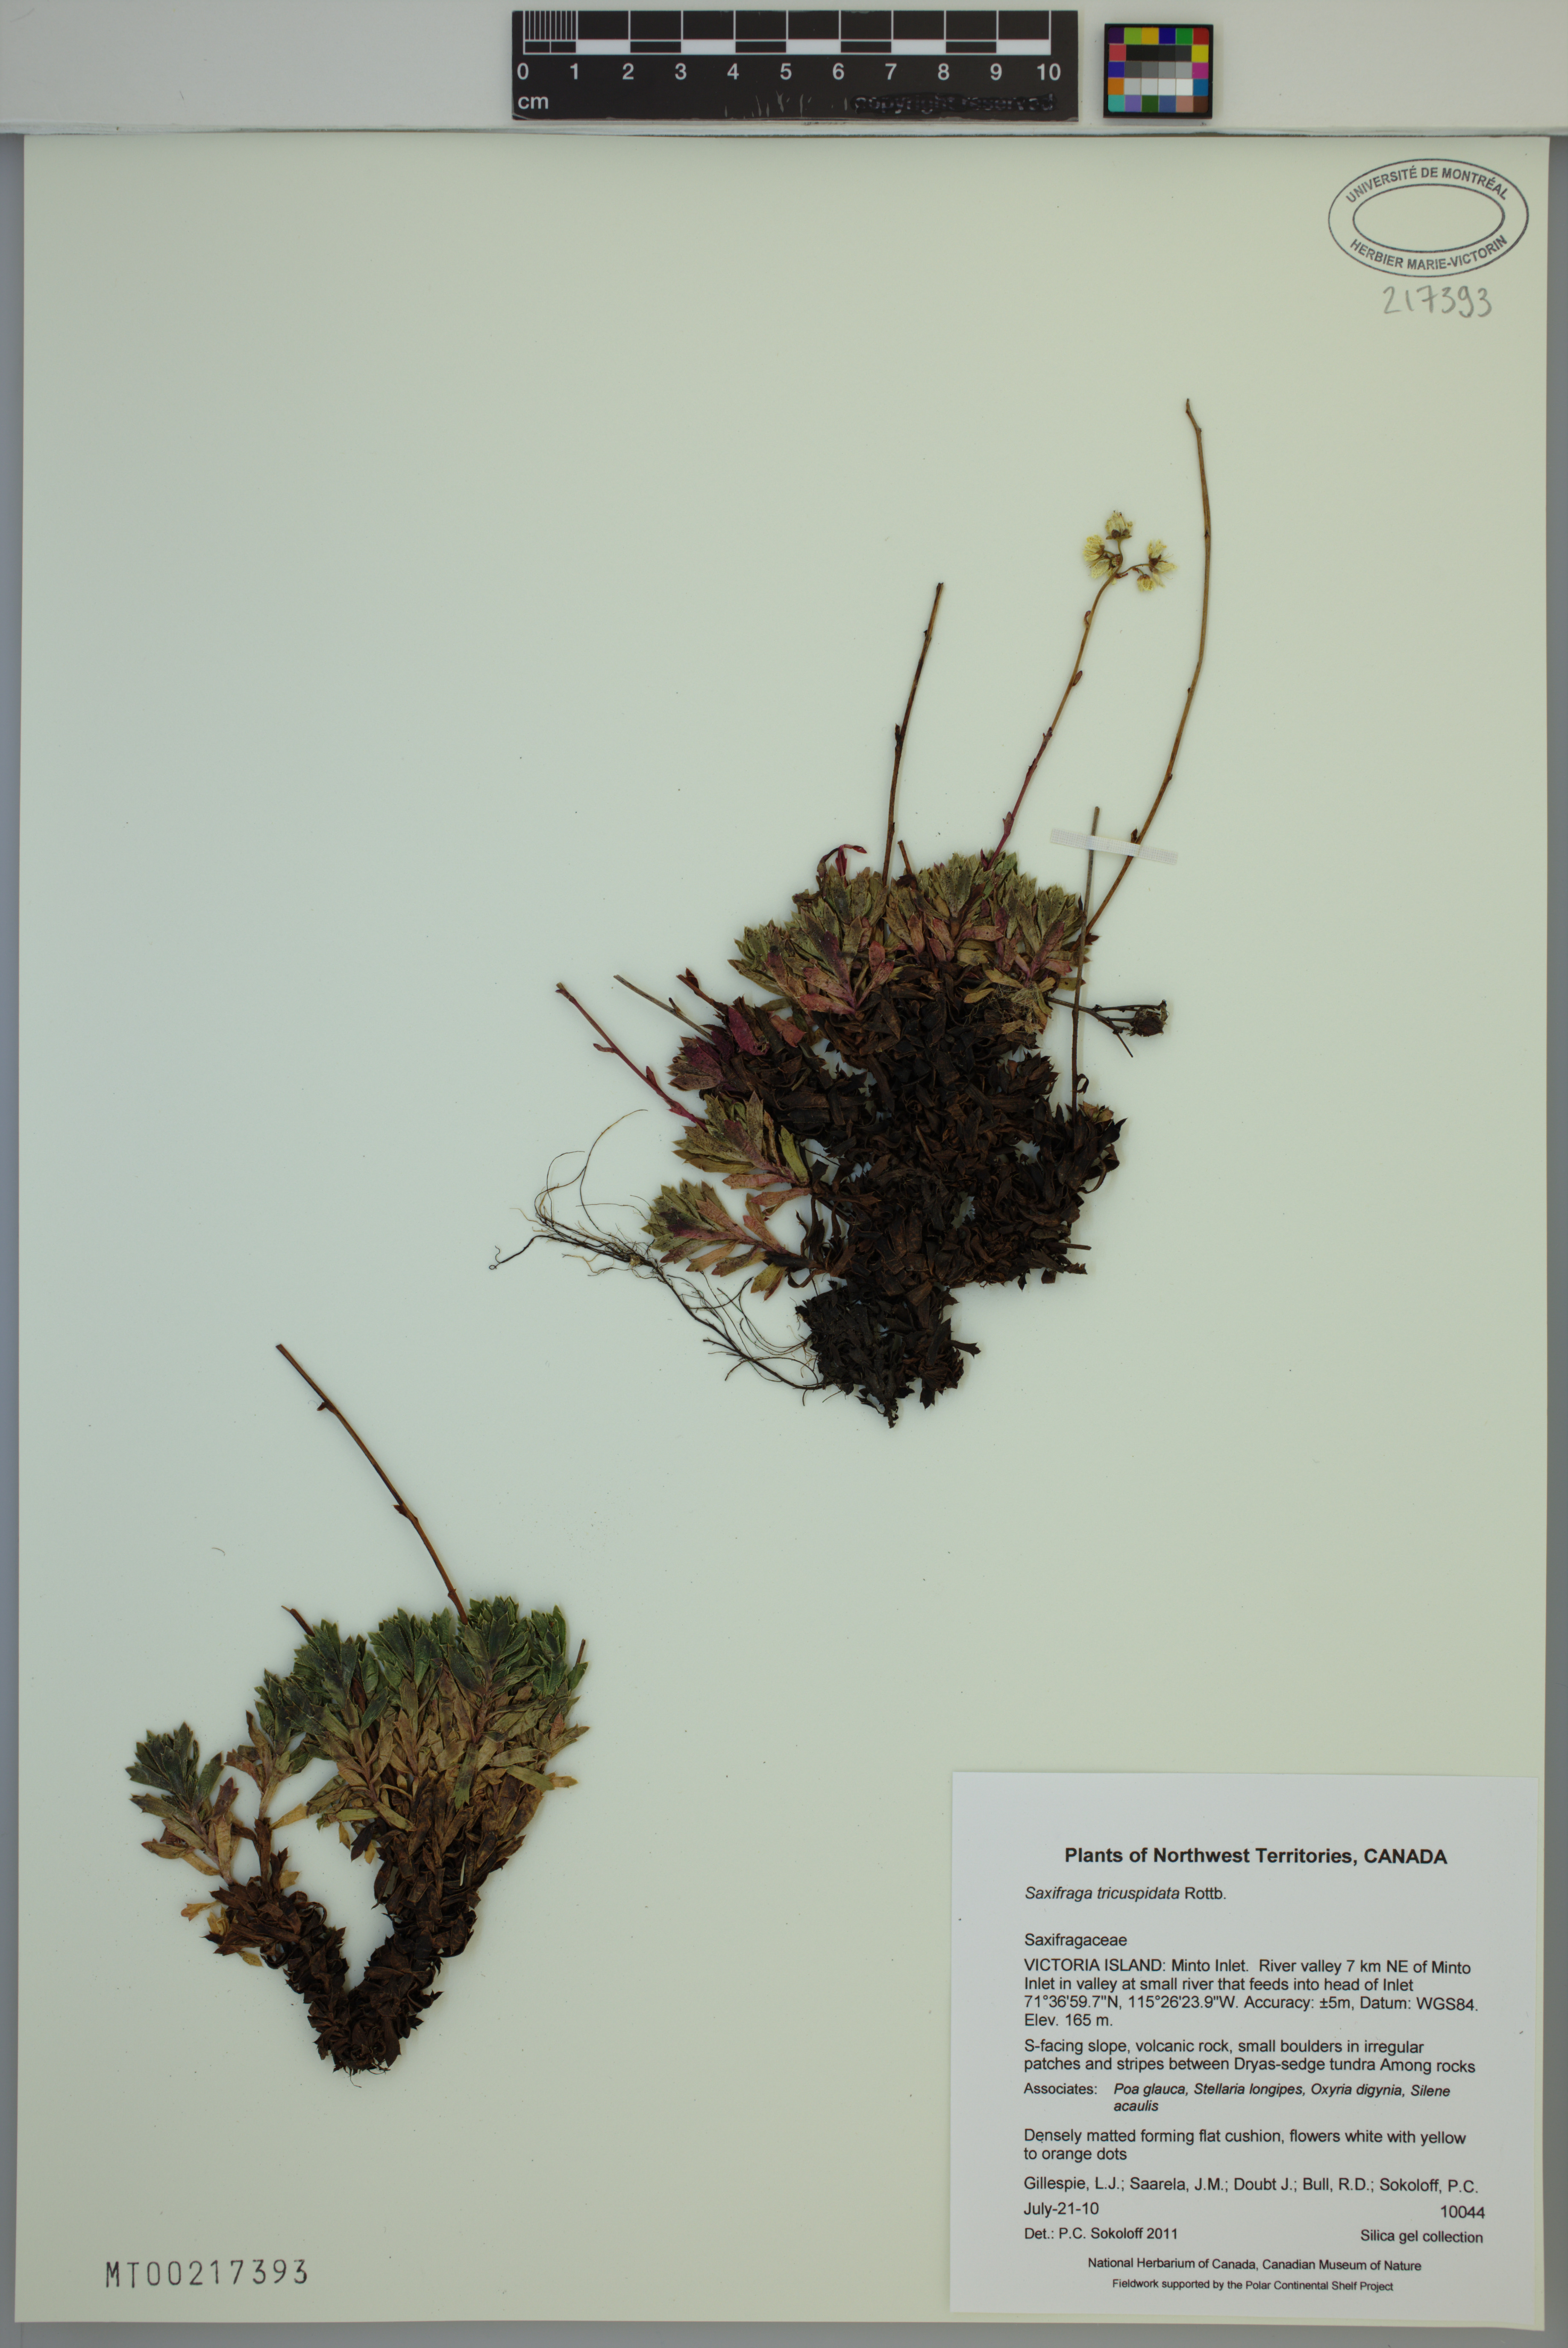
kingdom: Plantae
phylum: Tracheophyta
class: Magnoliopsida
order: Saxifragales
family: Saxifragaceae
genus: Saxifraga
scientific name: Saxifraga tricuspidata
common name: Prickly saxifrage
